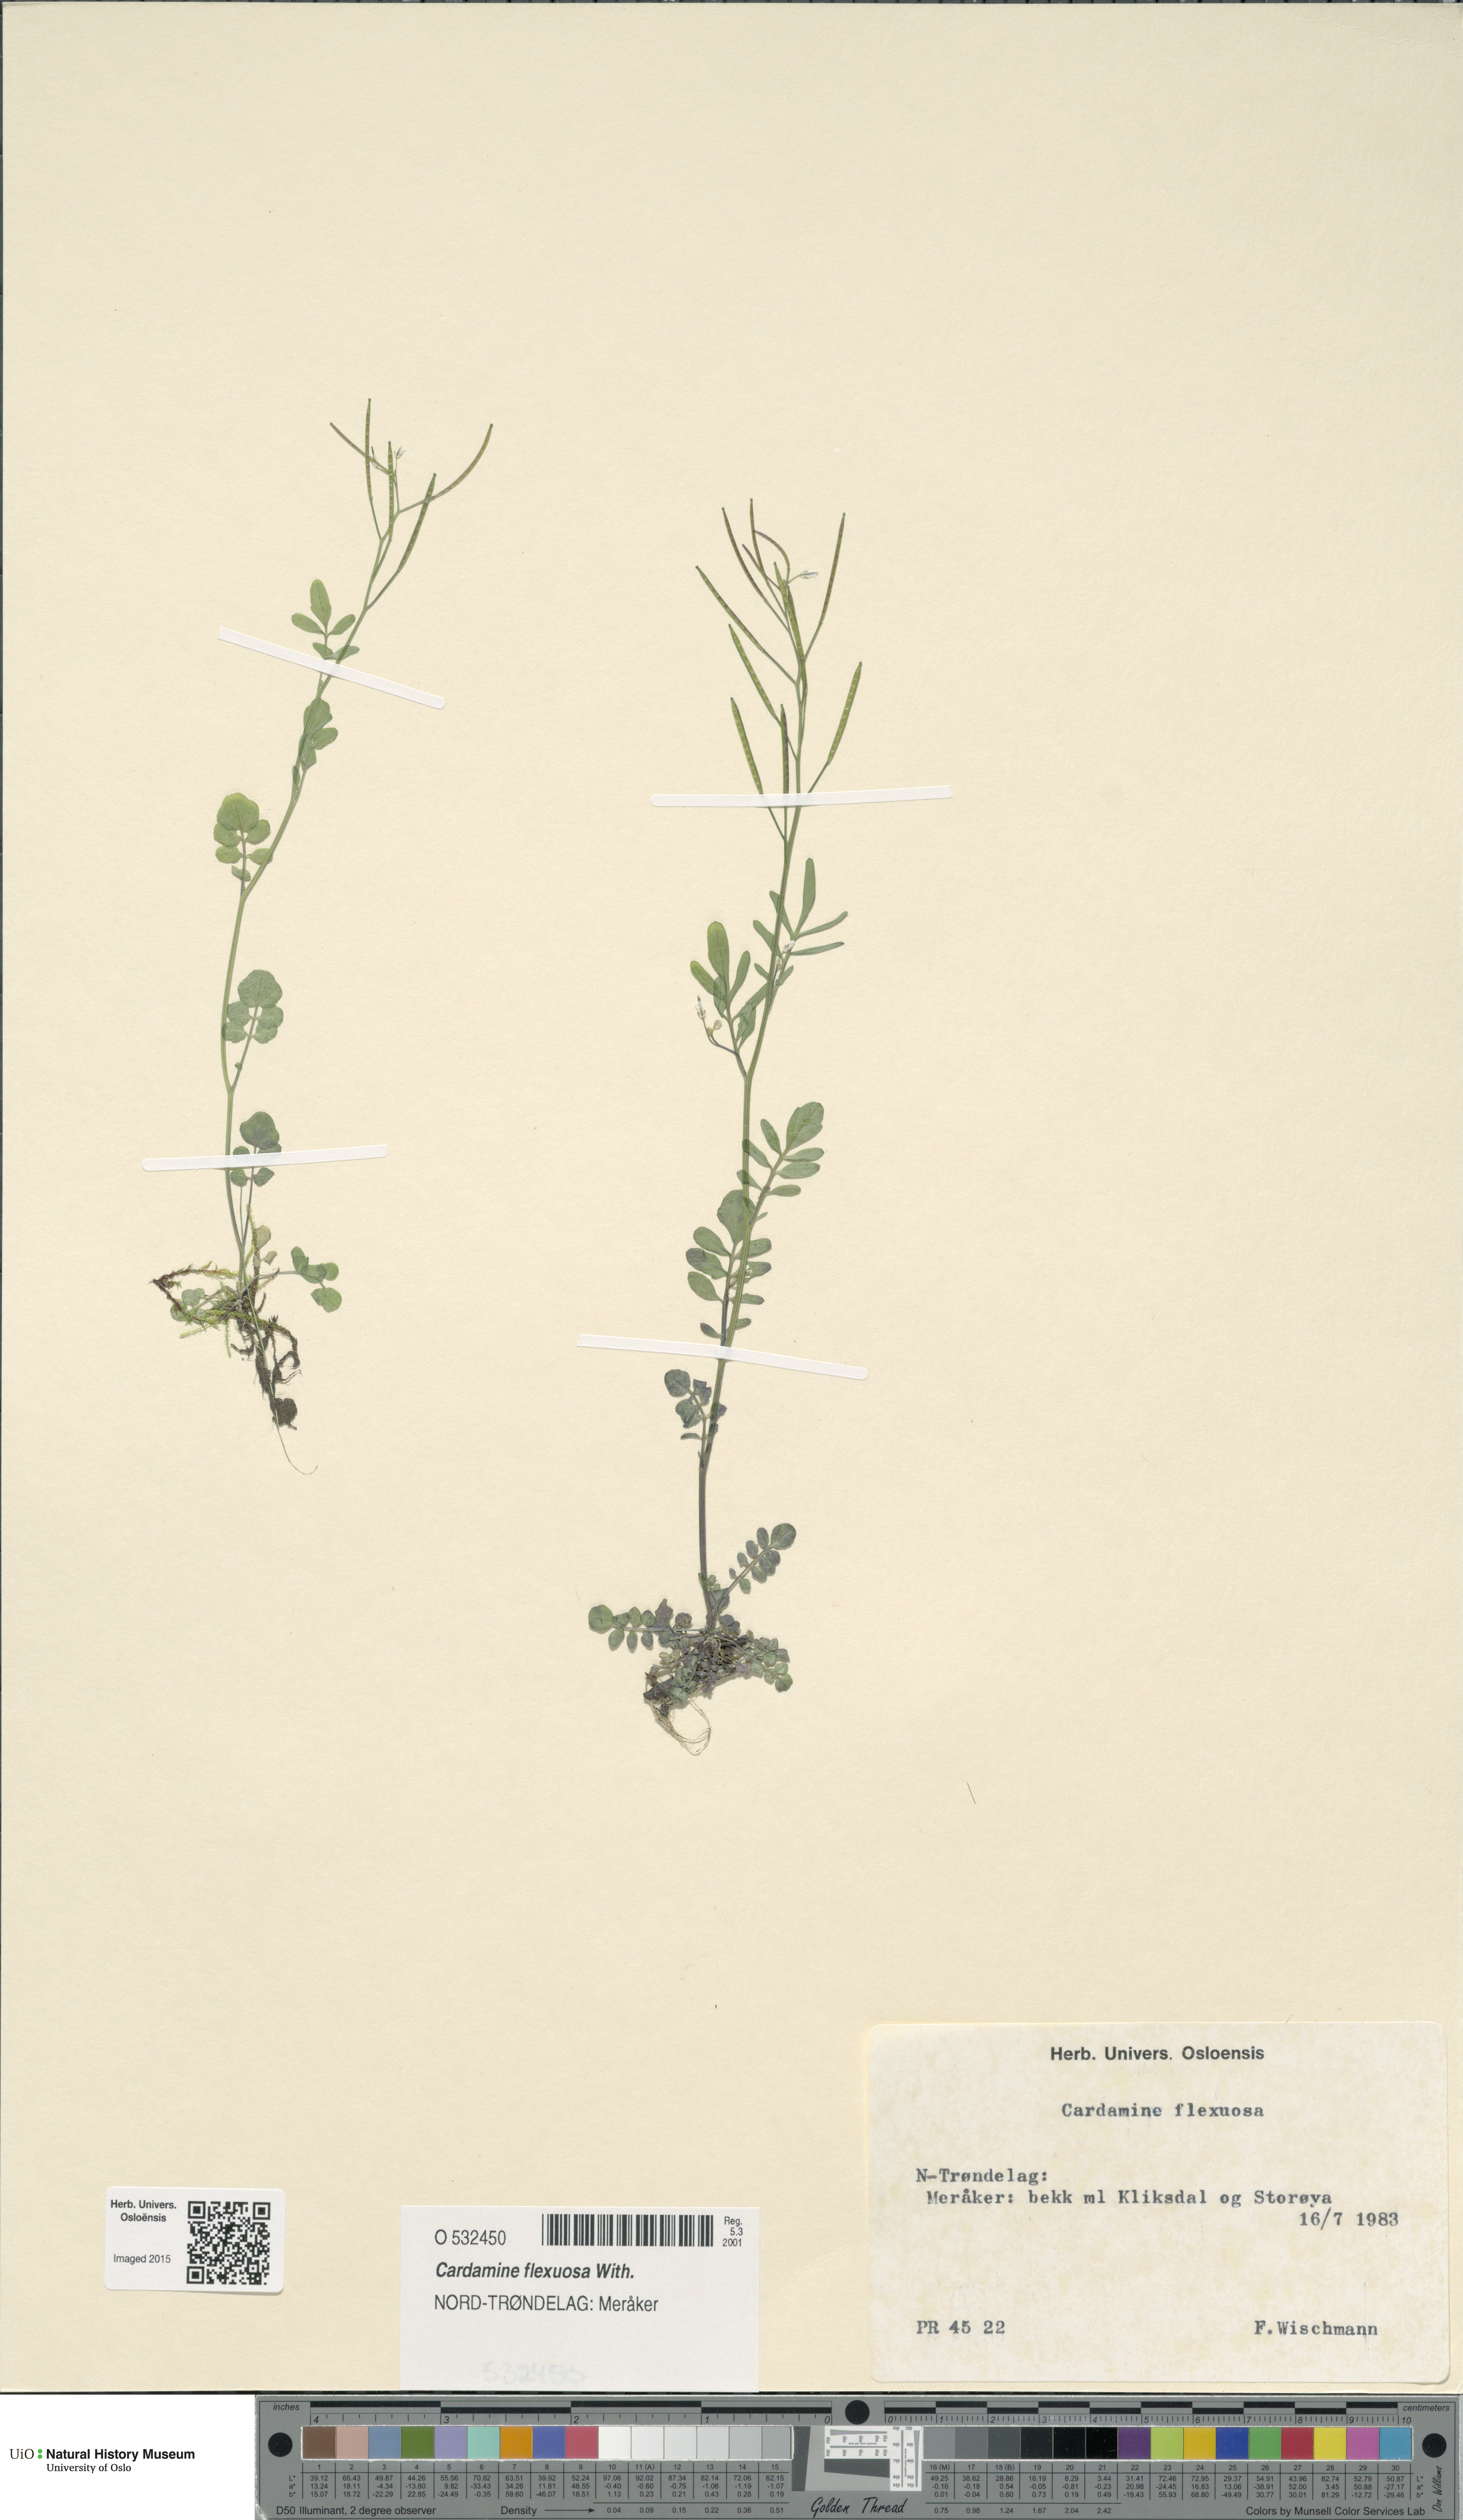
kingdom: Plantae
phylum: Tracheophyta
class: Magnoliopsida
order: Brassicales
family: Brassicaceae
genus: Cardamine
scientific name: Cardamine flexuosa
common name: Woodland bittercress
